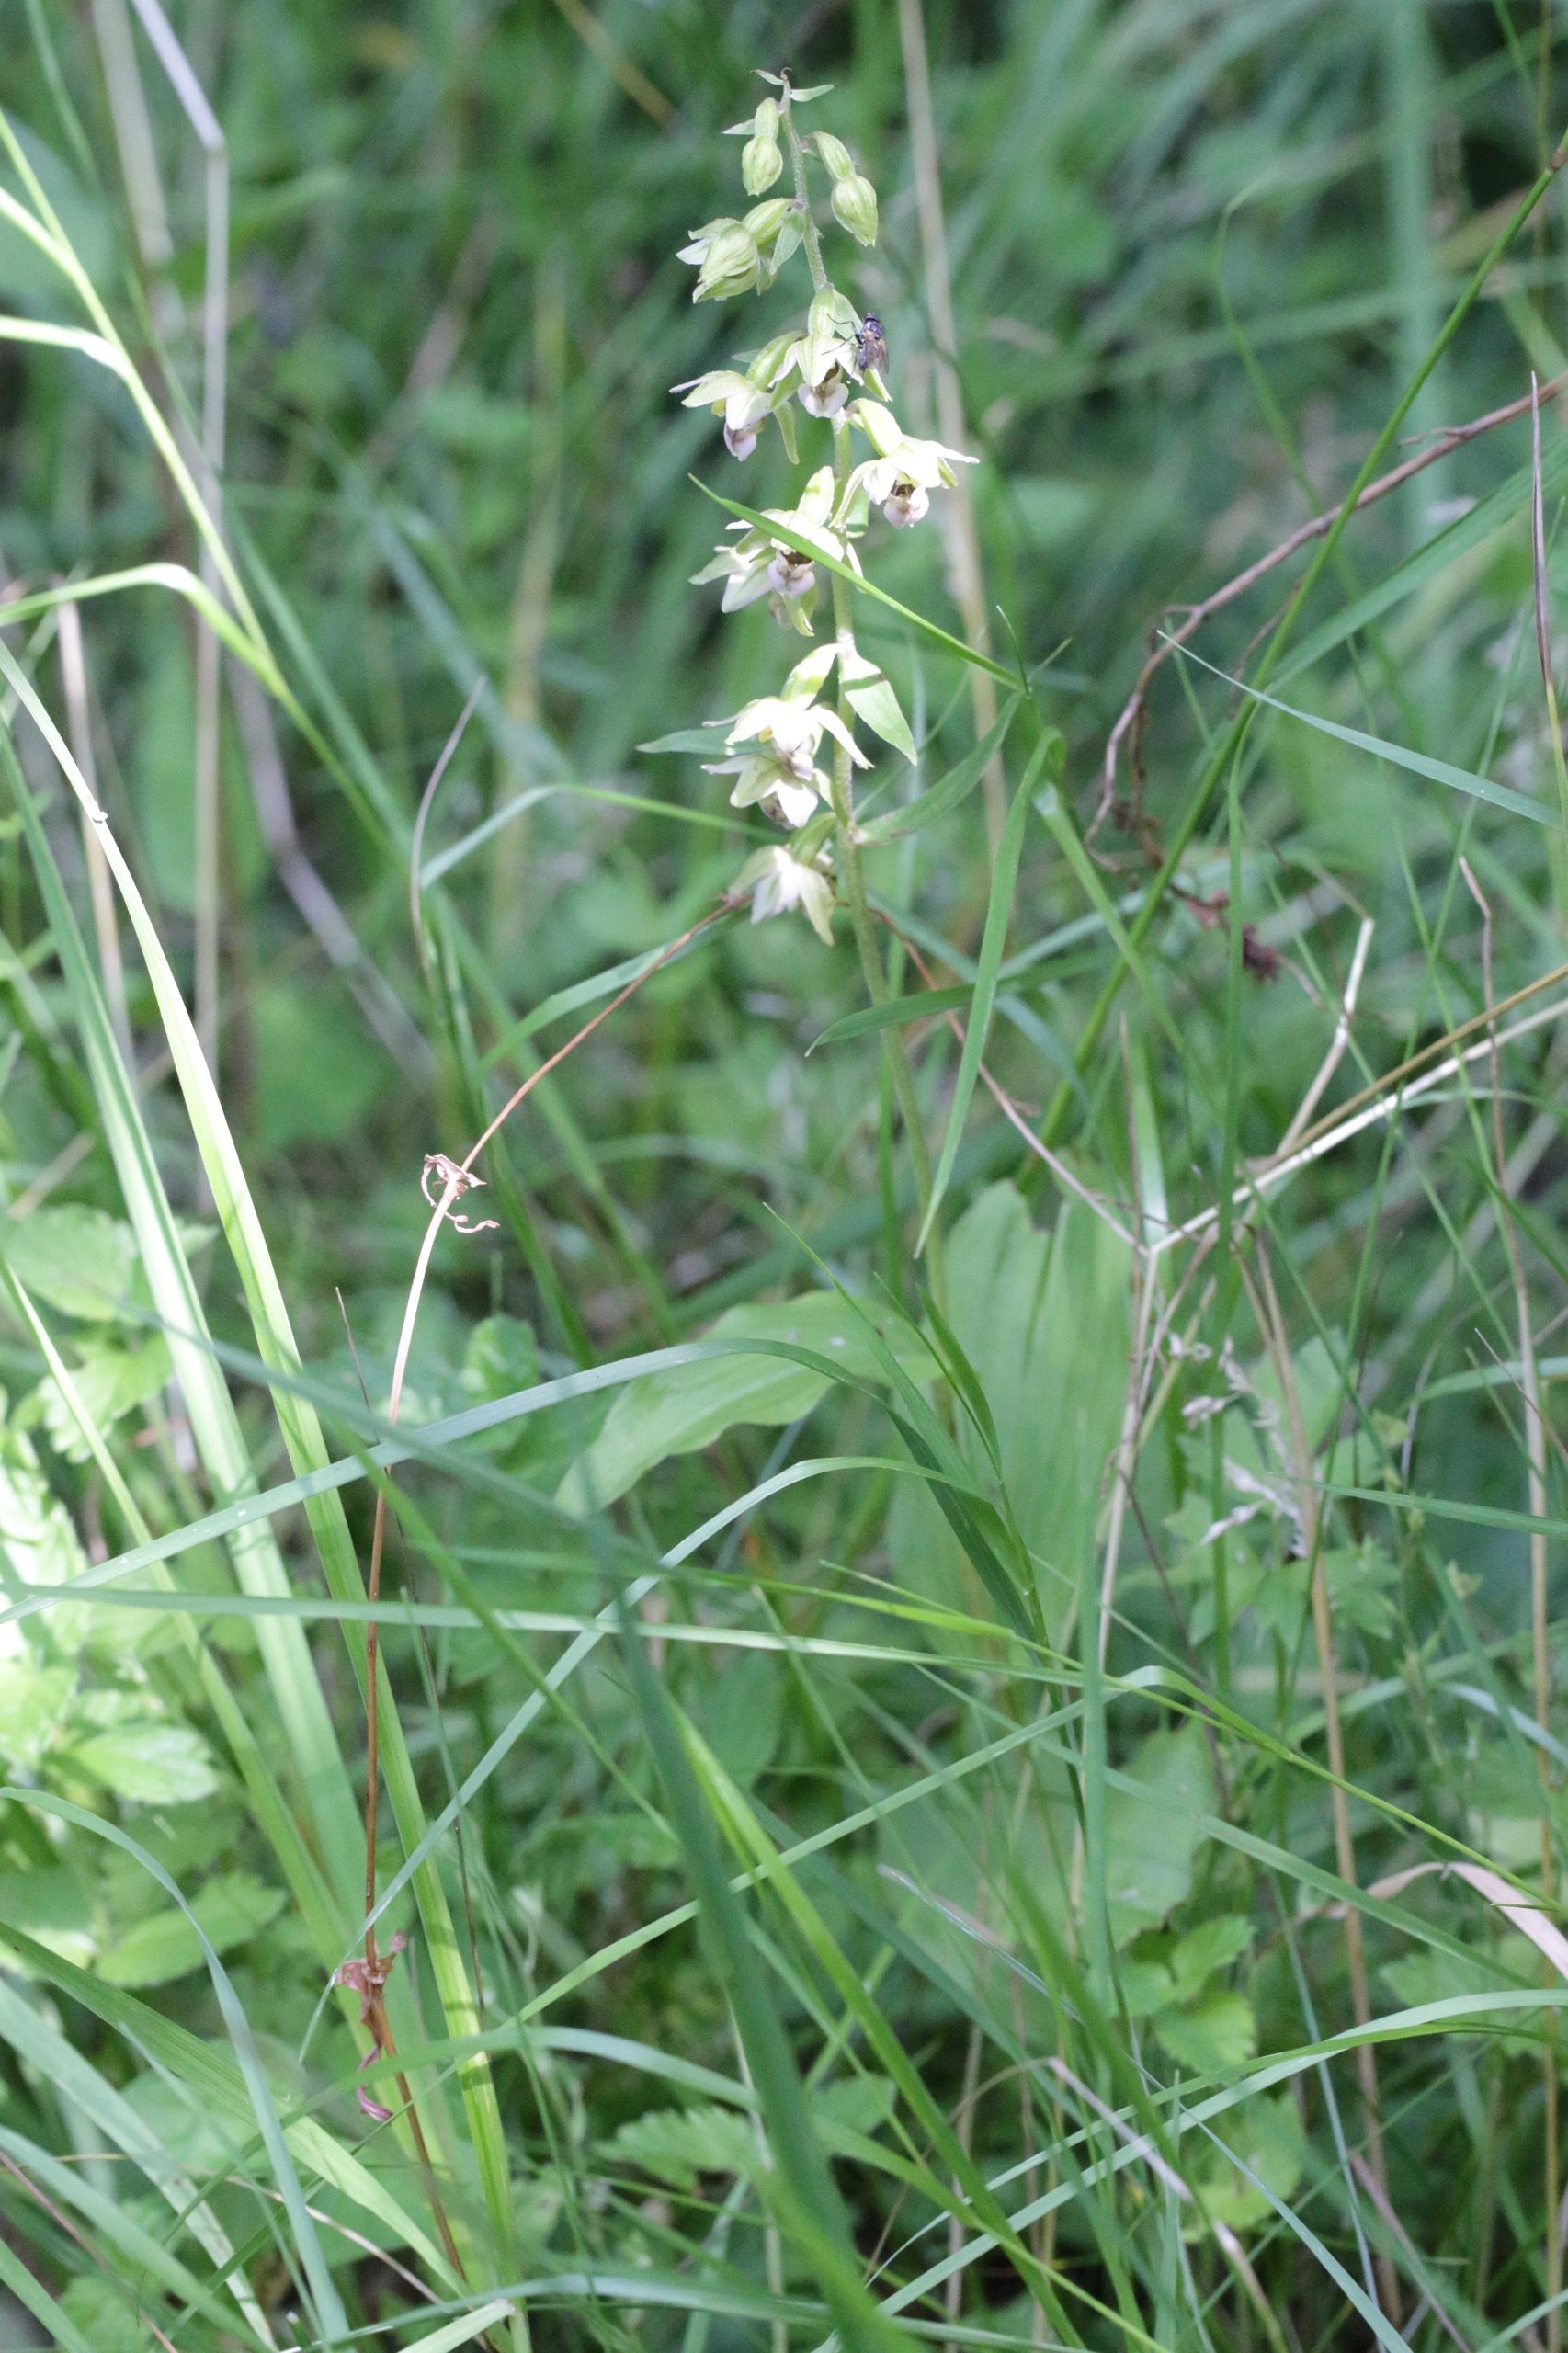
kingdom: Plantae
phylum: Tracheophyta
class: Liliopsida
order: Asparagales
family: Orchidaceae
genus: Epipactis
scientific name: Epipactis helleborine
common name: Skov-hullæbe
